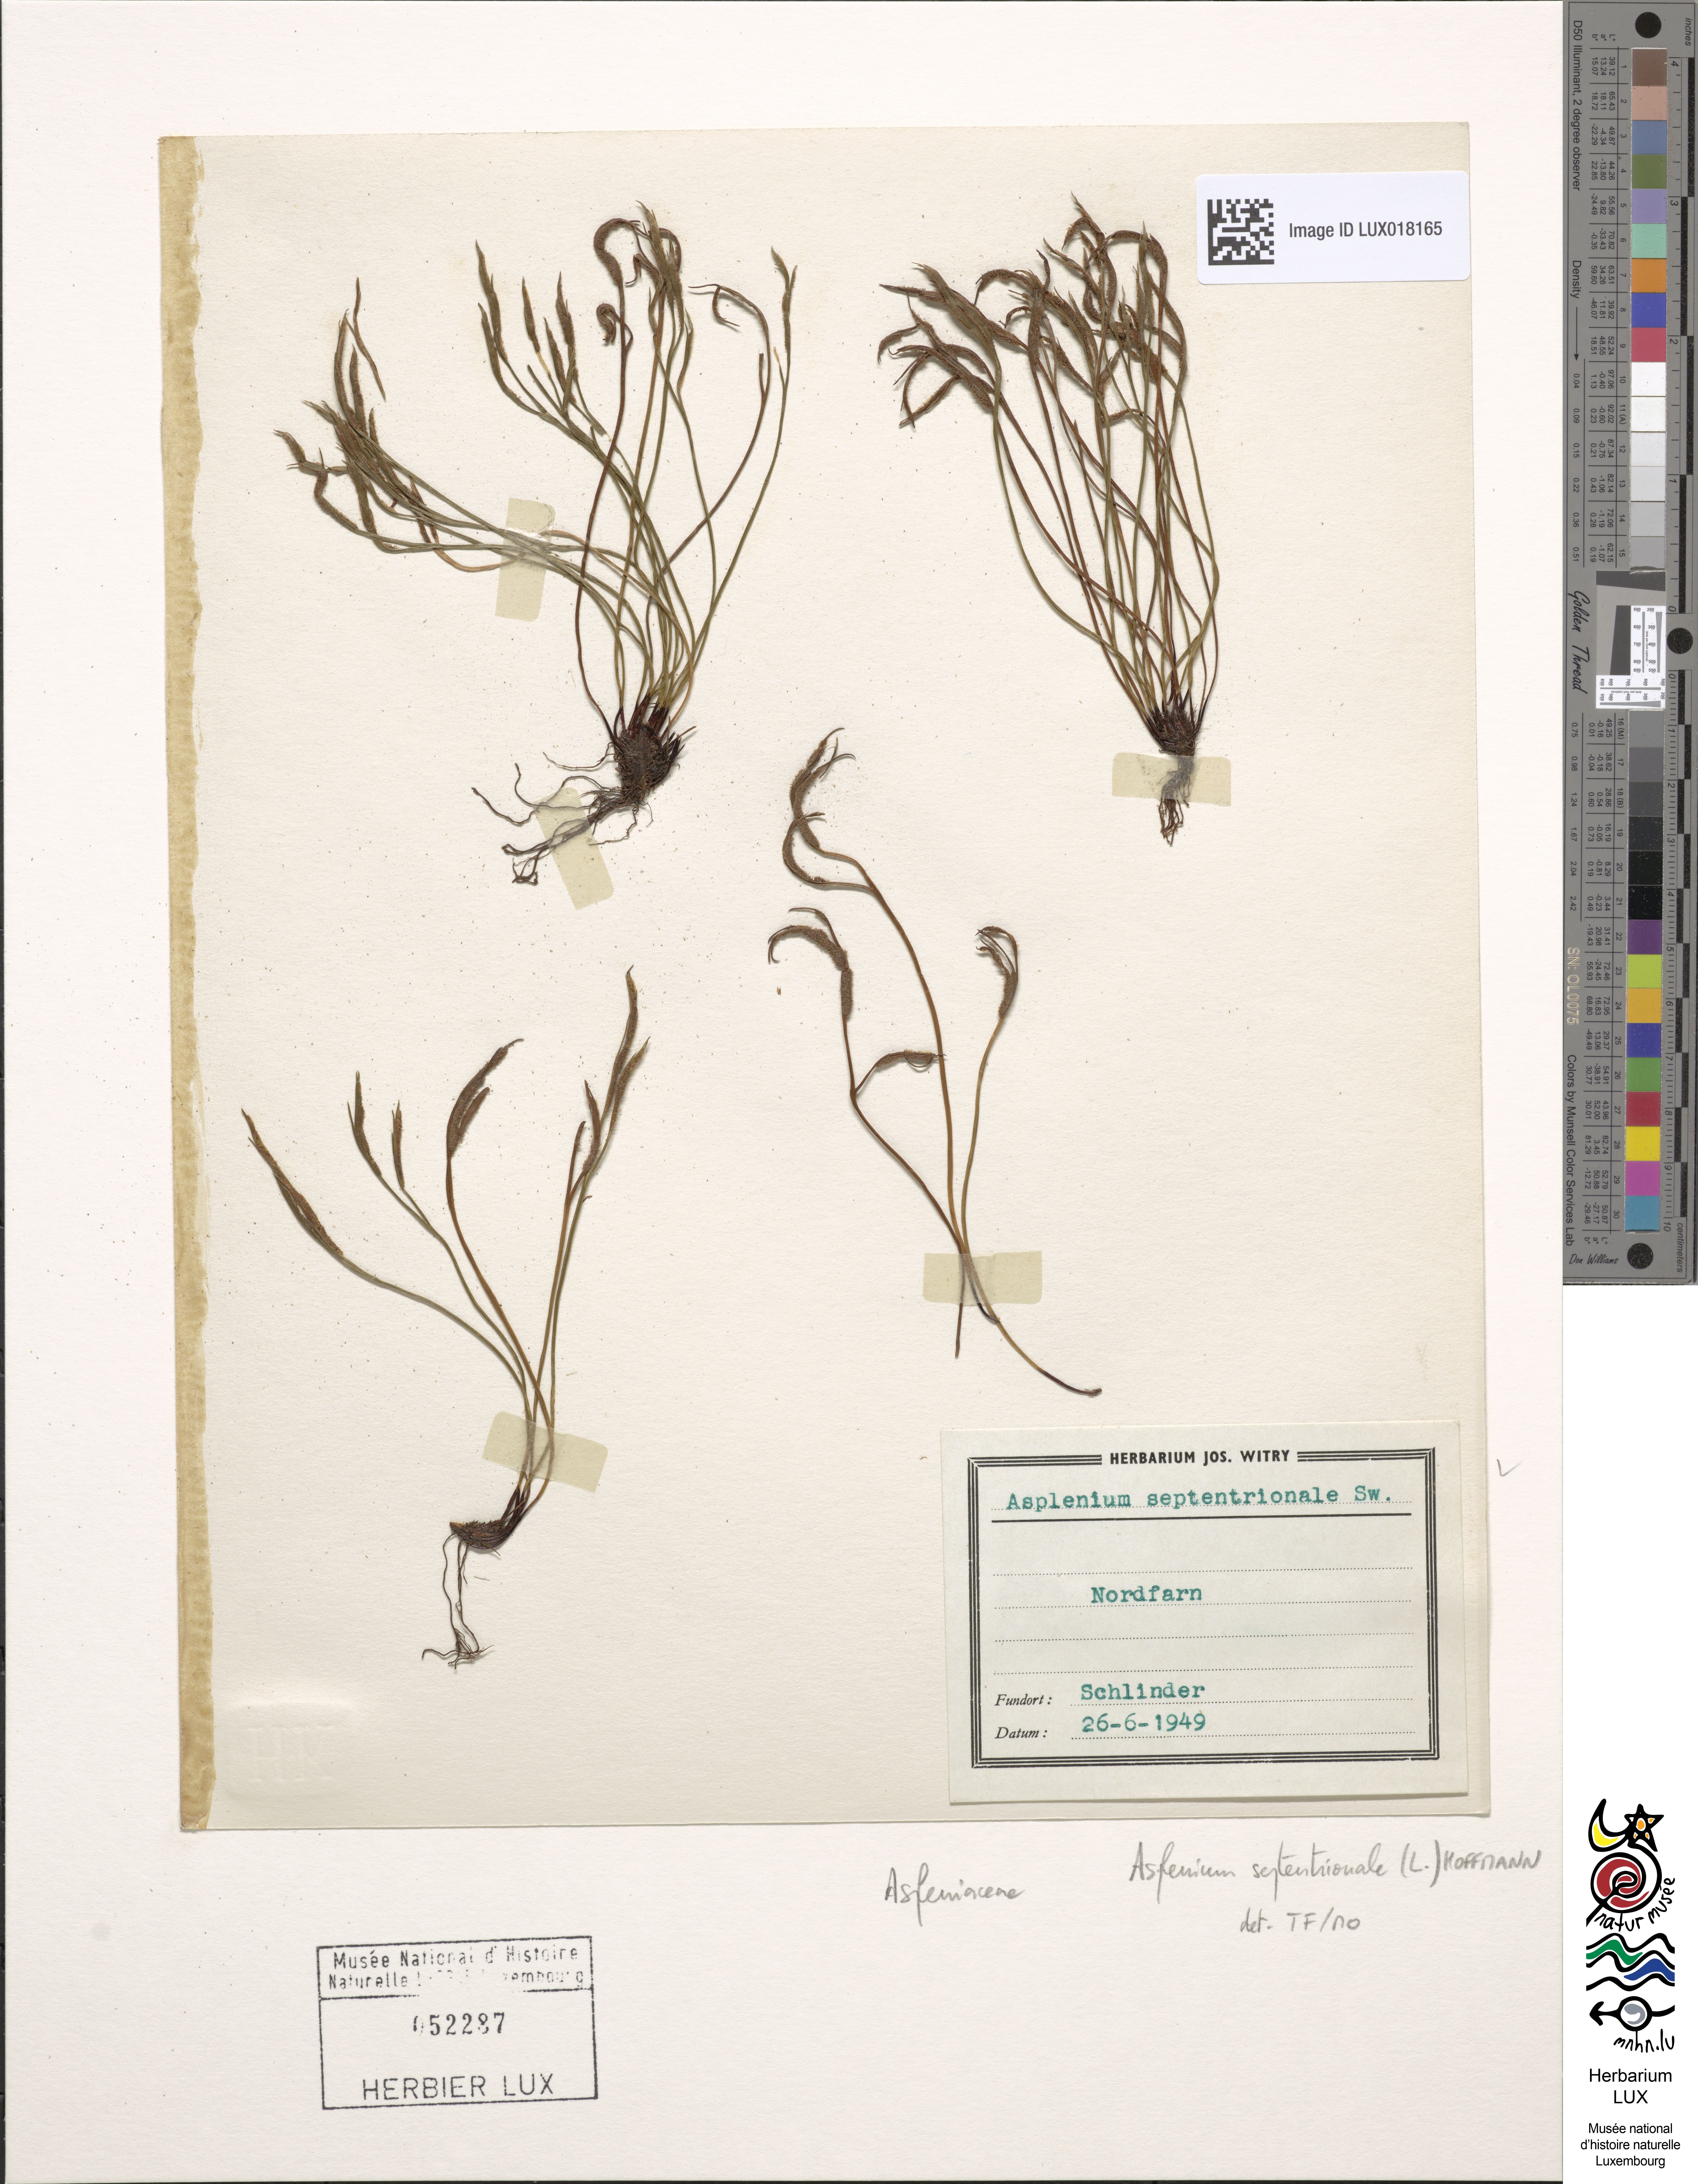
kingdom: Plantae
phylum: Tracheophyta
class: Polypodiopsida
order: Polypodiales
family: Aspleniaceae
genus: Asplenium
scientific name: Asplenium septentrionale
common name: Forked spleenwort
